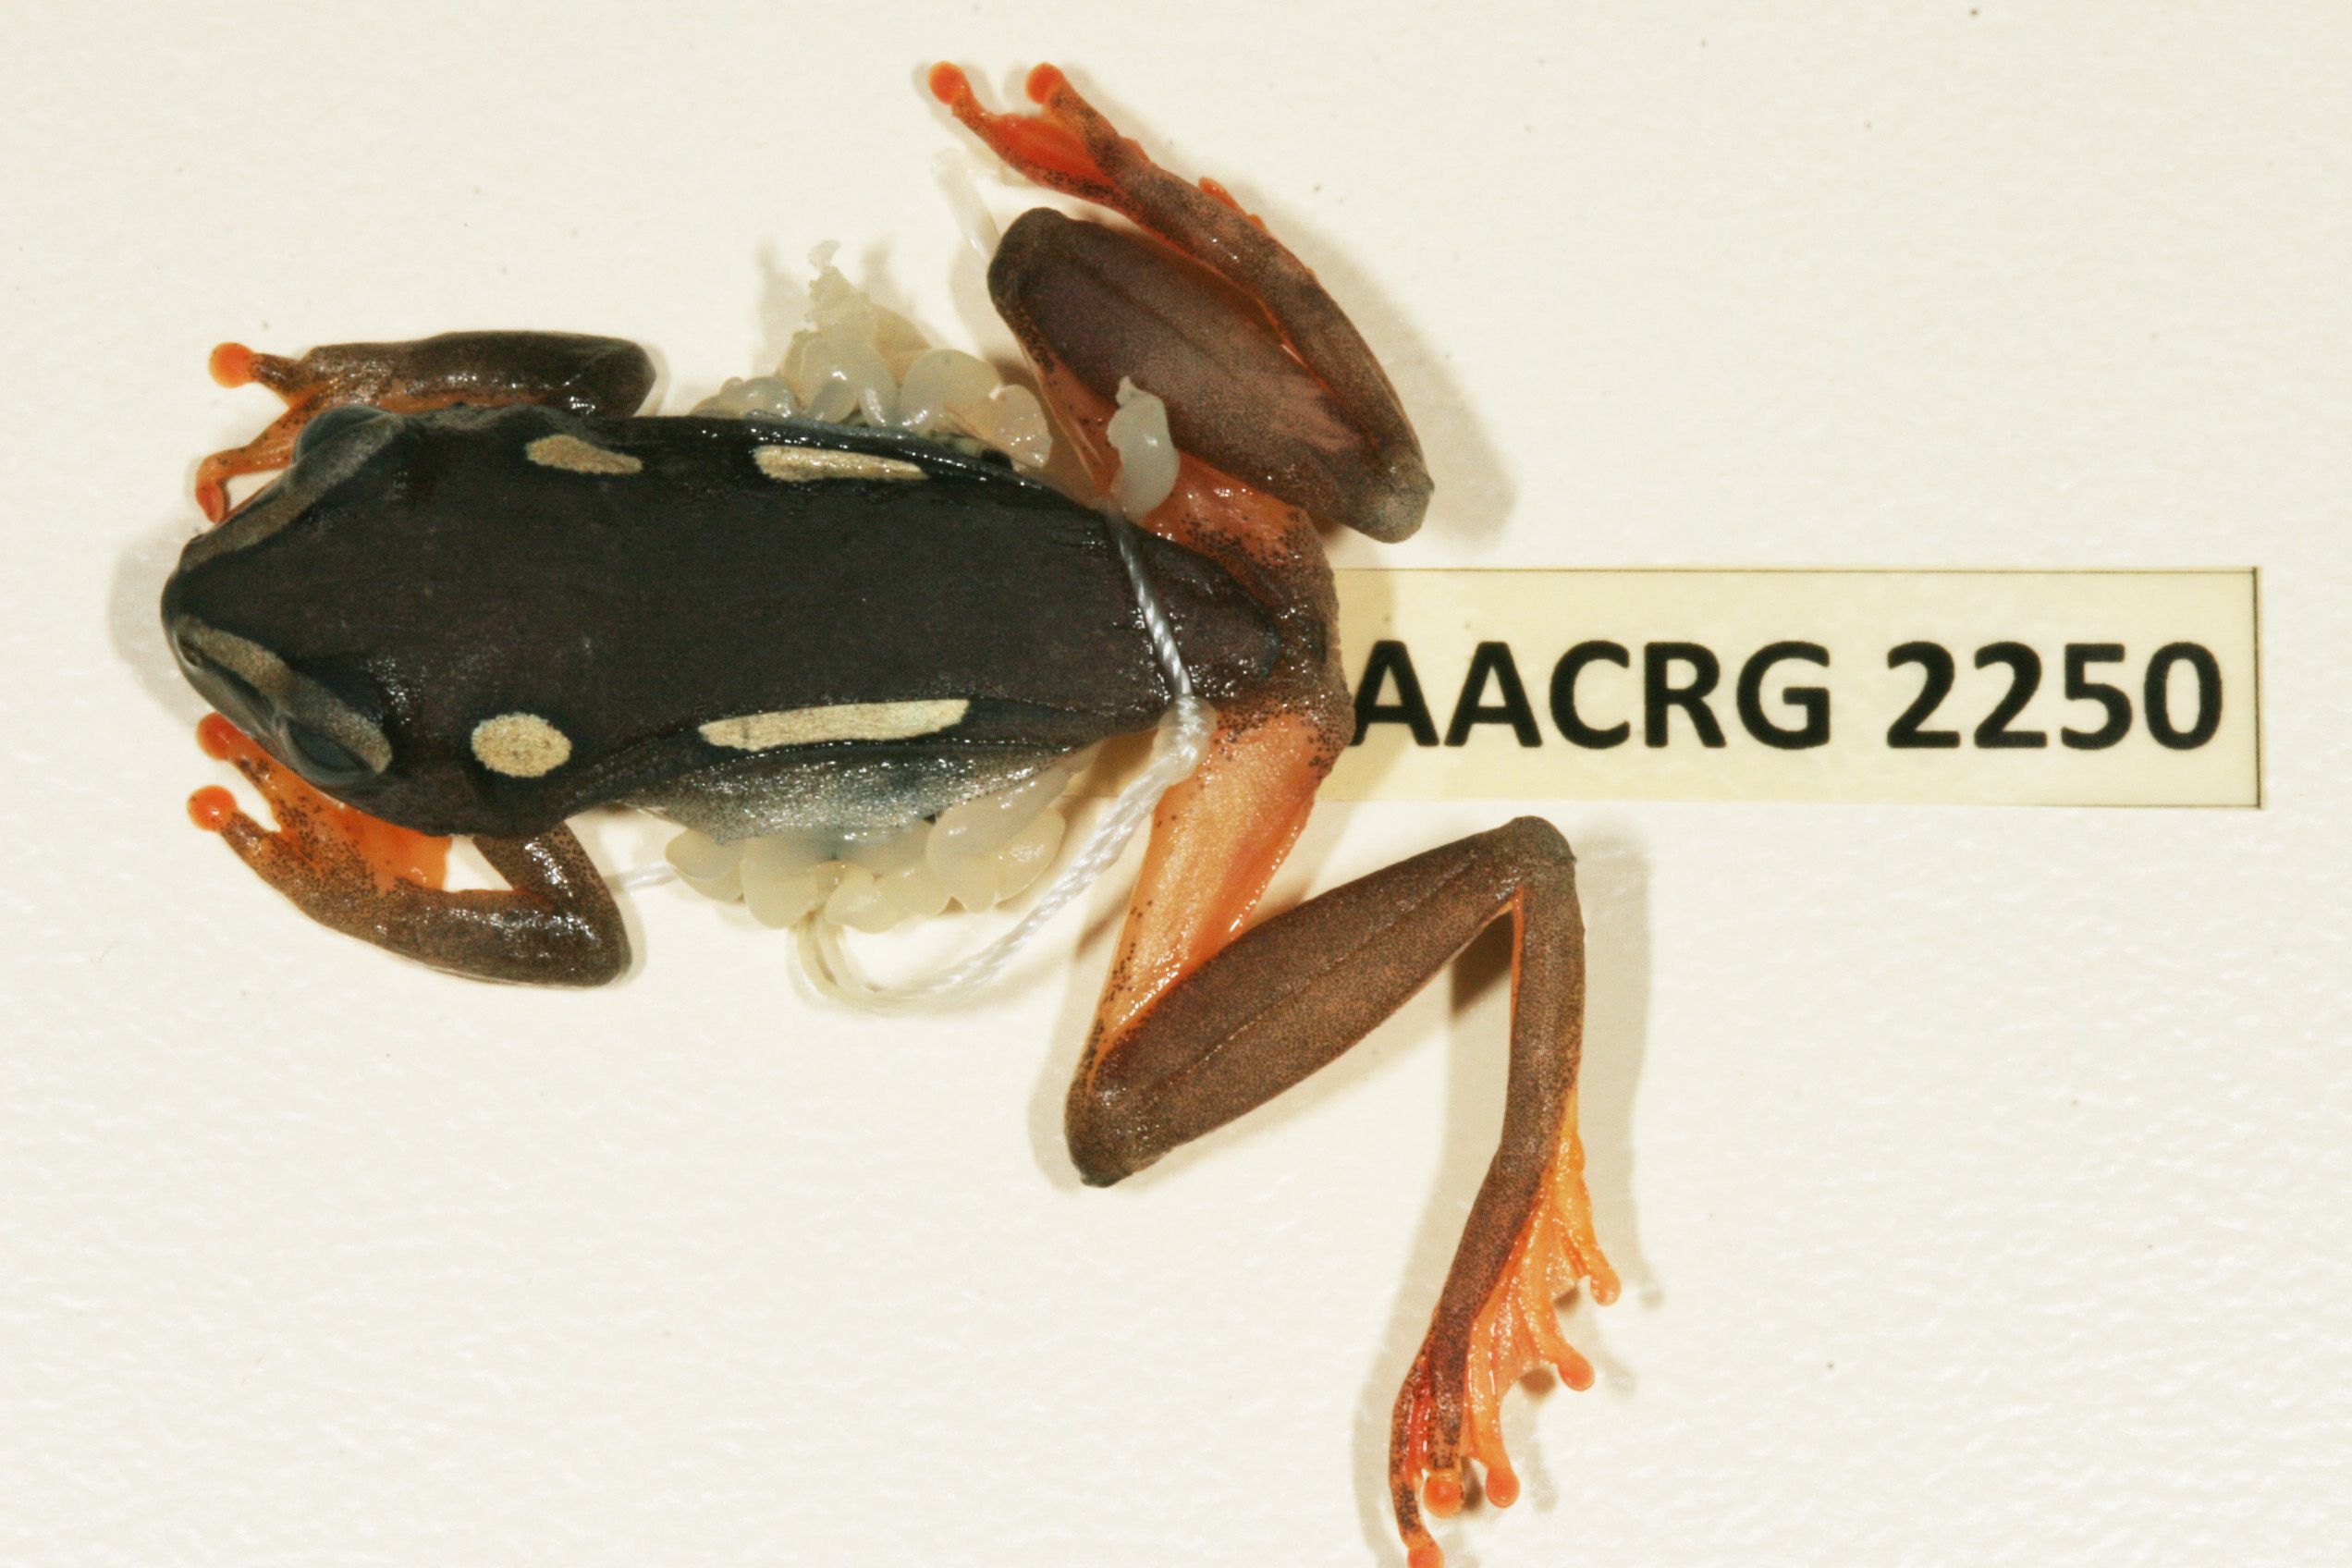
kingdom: Animalia
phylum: Chordata
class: Amphibia
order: Anura
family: Hyperoliidae
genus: Hyperolius
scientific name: Hyperolius argus
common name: Argus reed frog
